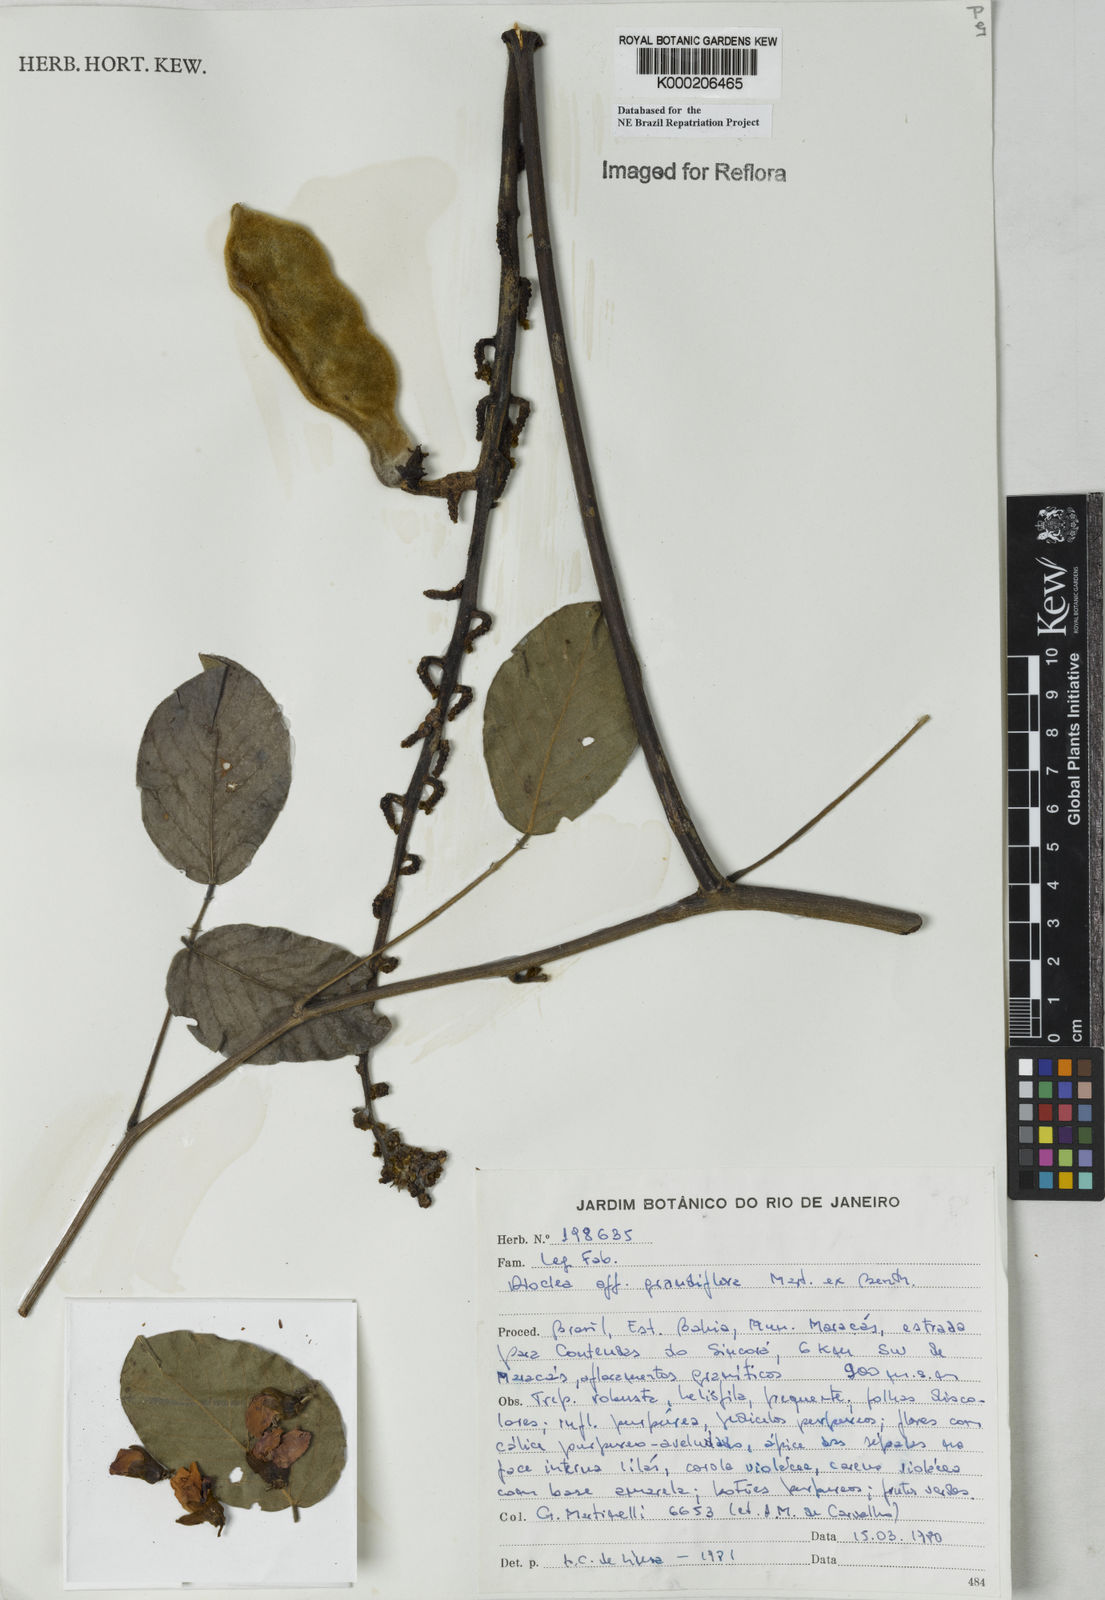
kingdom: Plantae
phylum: Tracheophyta
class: Magnoliopsida
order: Fabales
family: Fabaceae
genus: Macropsychanthus
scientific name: Macropsychanthus grandiflorus
